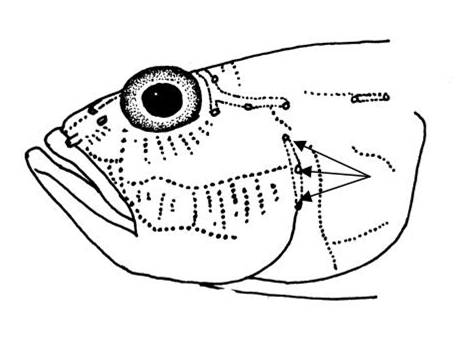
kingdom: Animalia
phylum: Chordata
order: Perciformes
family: Gobiidae
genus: Acentrogobius
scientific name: Acentrogobius
